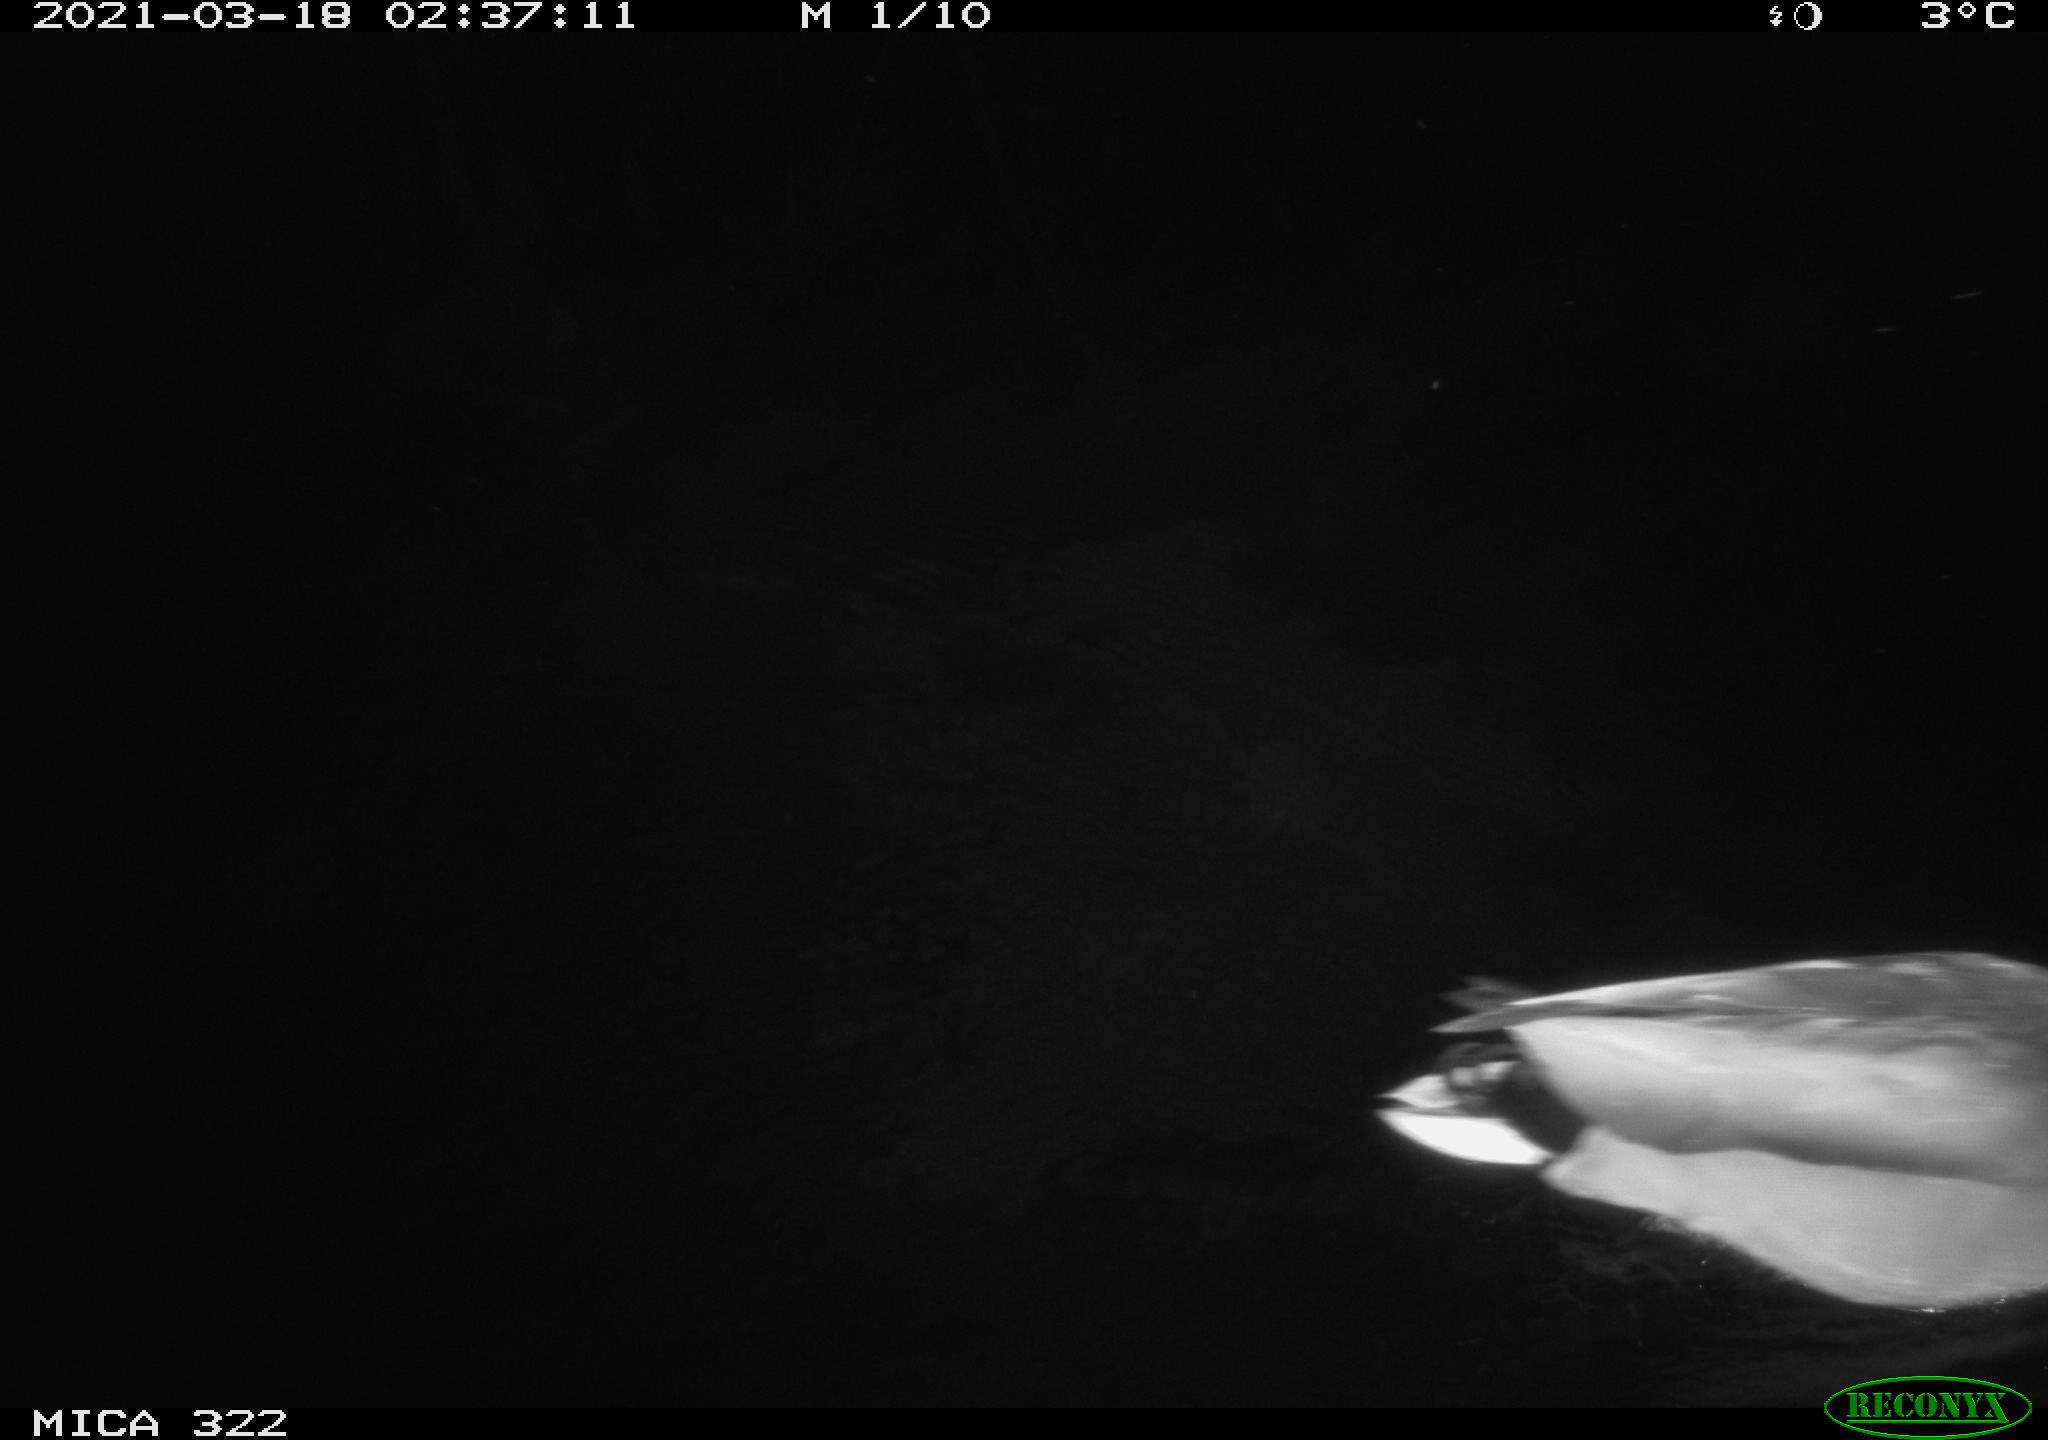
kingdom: Animalia
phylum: Chordata
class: Aves
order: Anseriformes
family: Anatidae
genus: Anas
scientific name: Anas platyrhynchos
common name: Mallard
